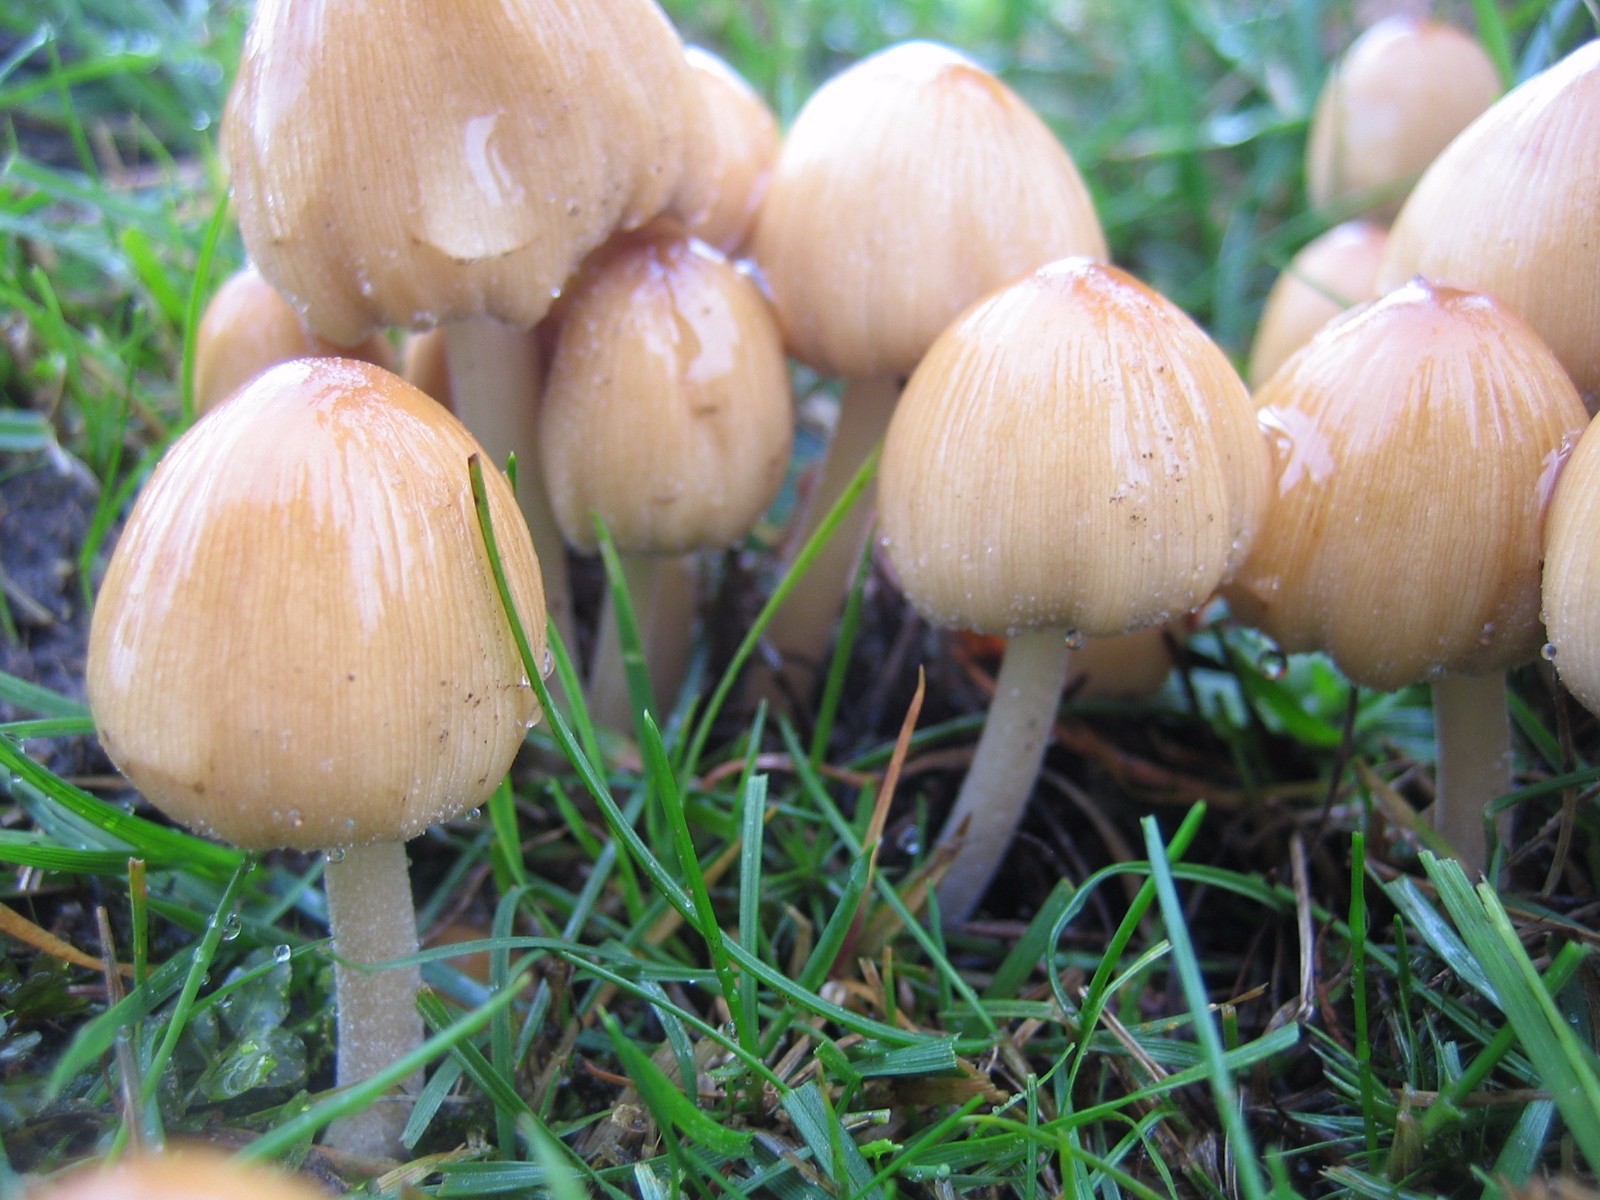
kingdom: Fungi
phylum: Basidiomycota
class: Agaricomycetes
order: Agaricales
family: Psathyrellaceae
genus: Coprinellus
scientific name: Coprinellus micaceus
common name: glimmer-blækhat
